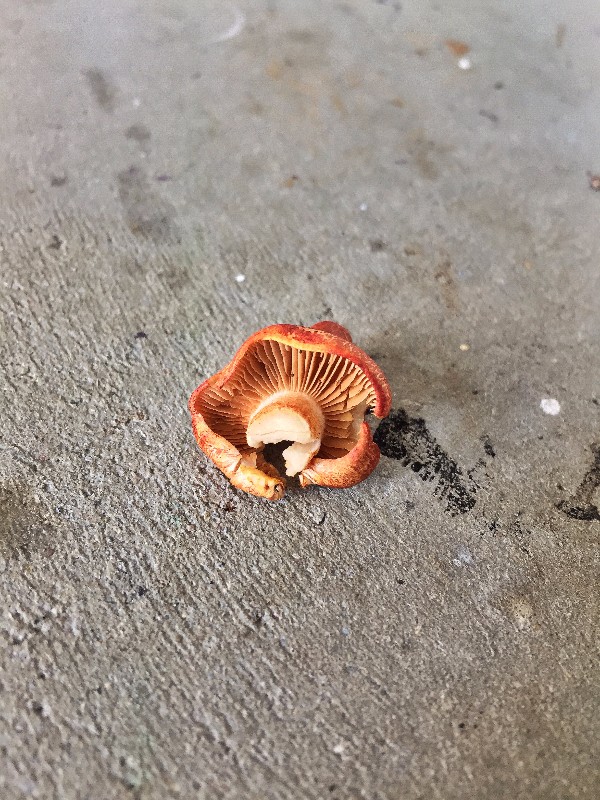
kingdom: Fungi
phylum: Basidiomycota
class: Agaricomycetes
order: Agaricales
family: Cortinariaceae
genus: Cortinarius
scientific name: Cortinarius bolaris
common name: cinnoberskællet slørhat
